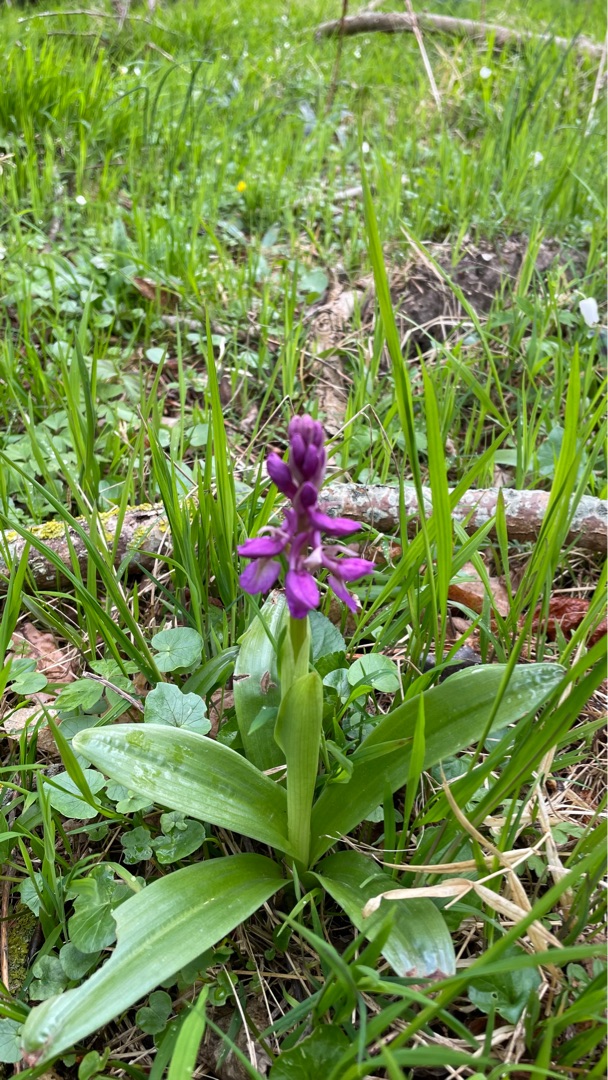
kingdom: Plantae
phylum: Tracheophyta
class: Liliopsida
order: Asparagales
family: Orchidaceae
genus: Orchis
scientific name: Orchis mascula
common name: Tyndakset gøgeurt
